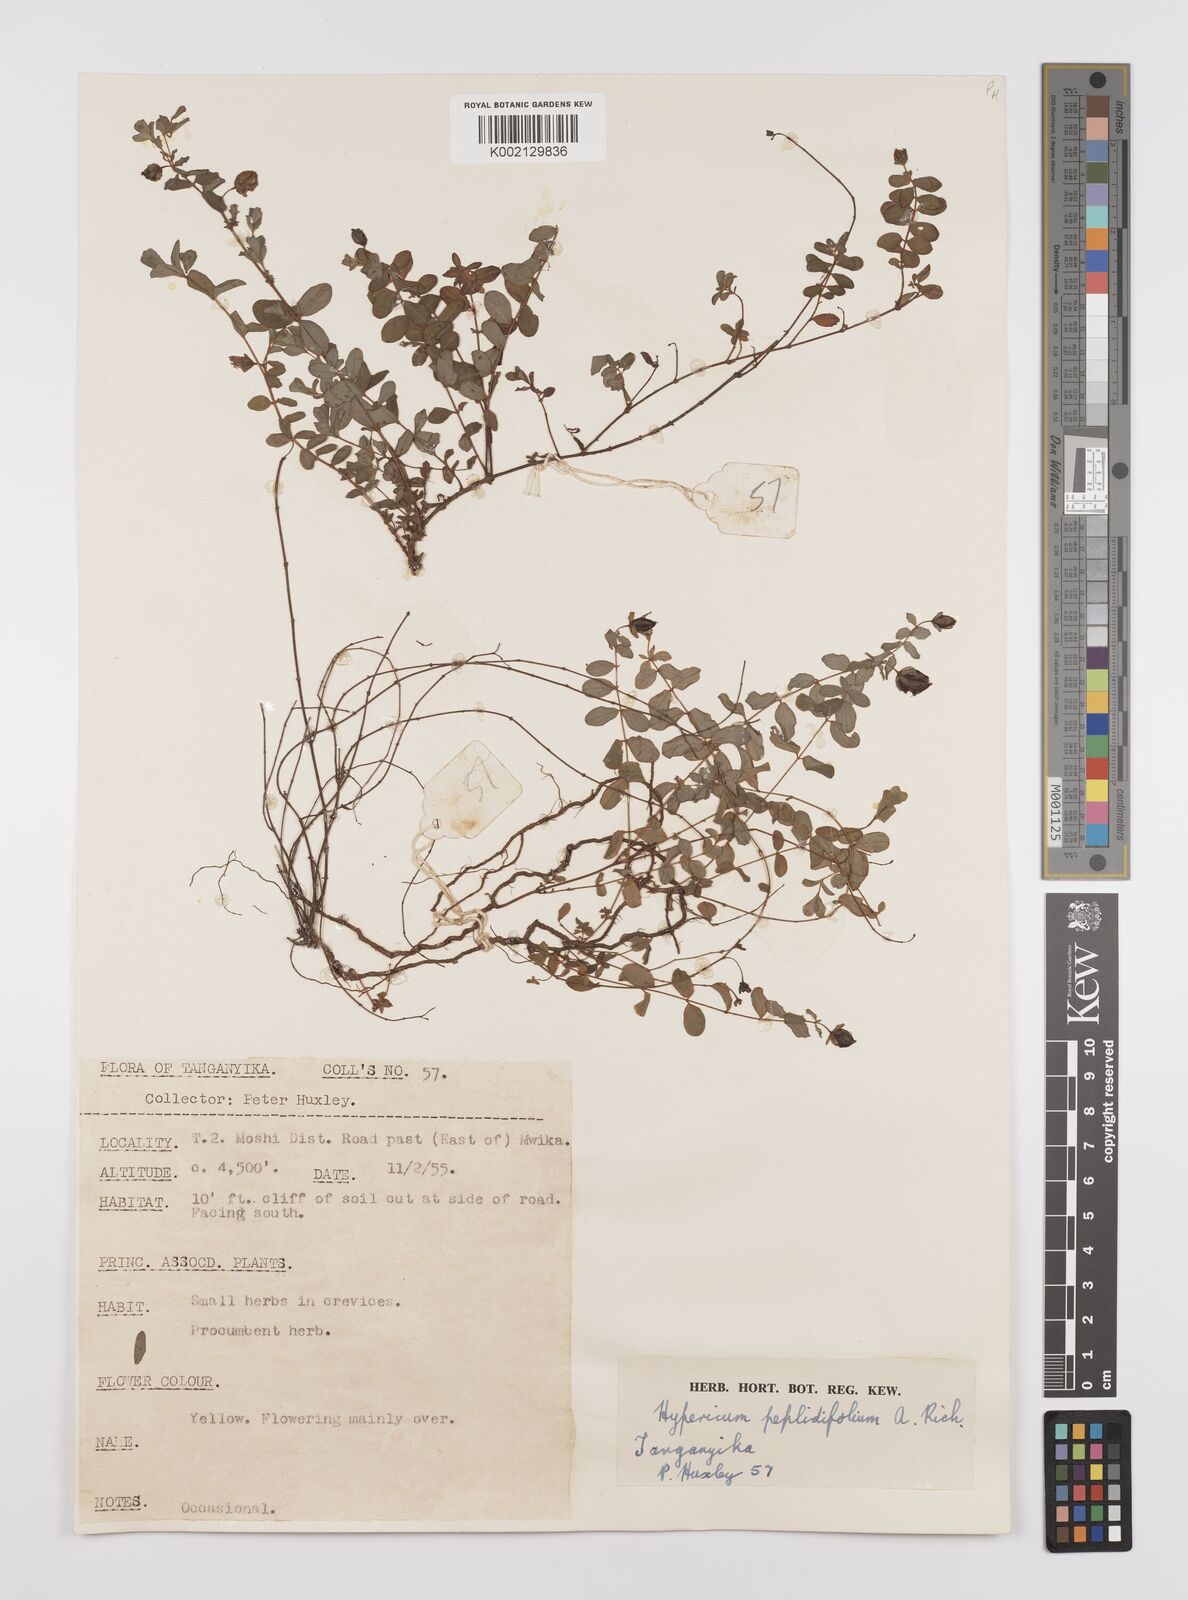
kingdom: Plantae
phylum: Tracheophyta
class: Magnoliopsida
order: Malpighiales
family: Hypericaceae
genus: Hypericum
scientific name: Hypericum peplidifolium
